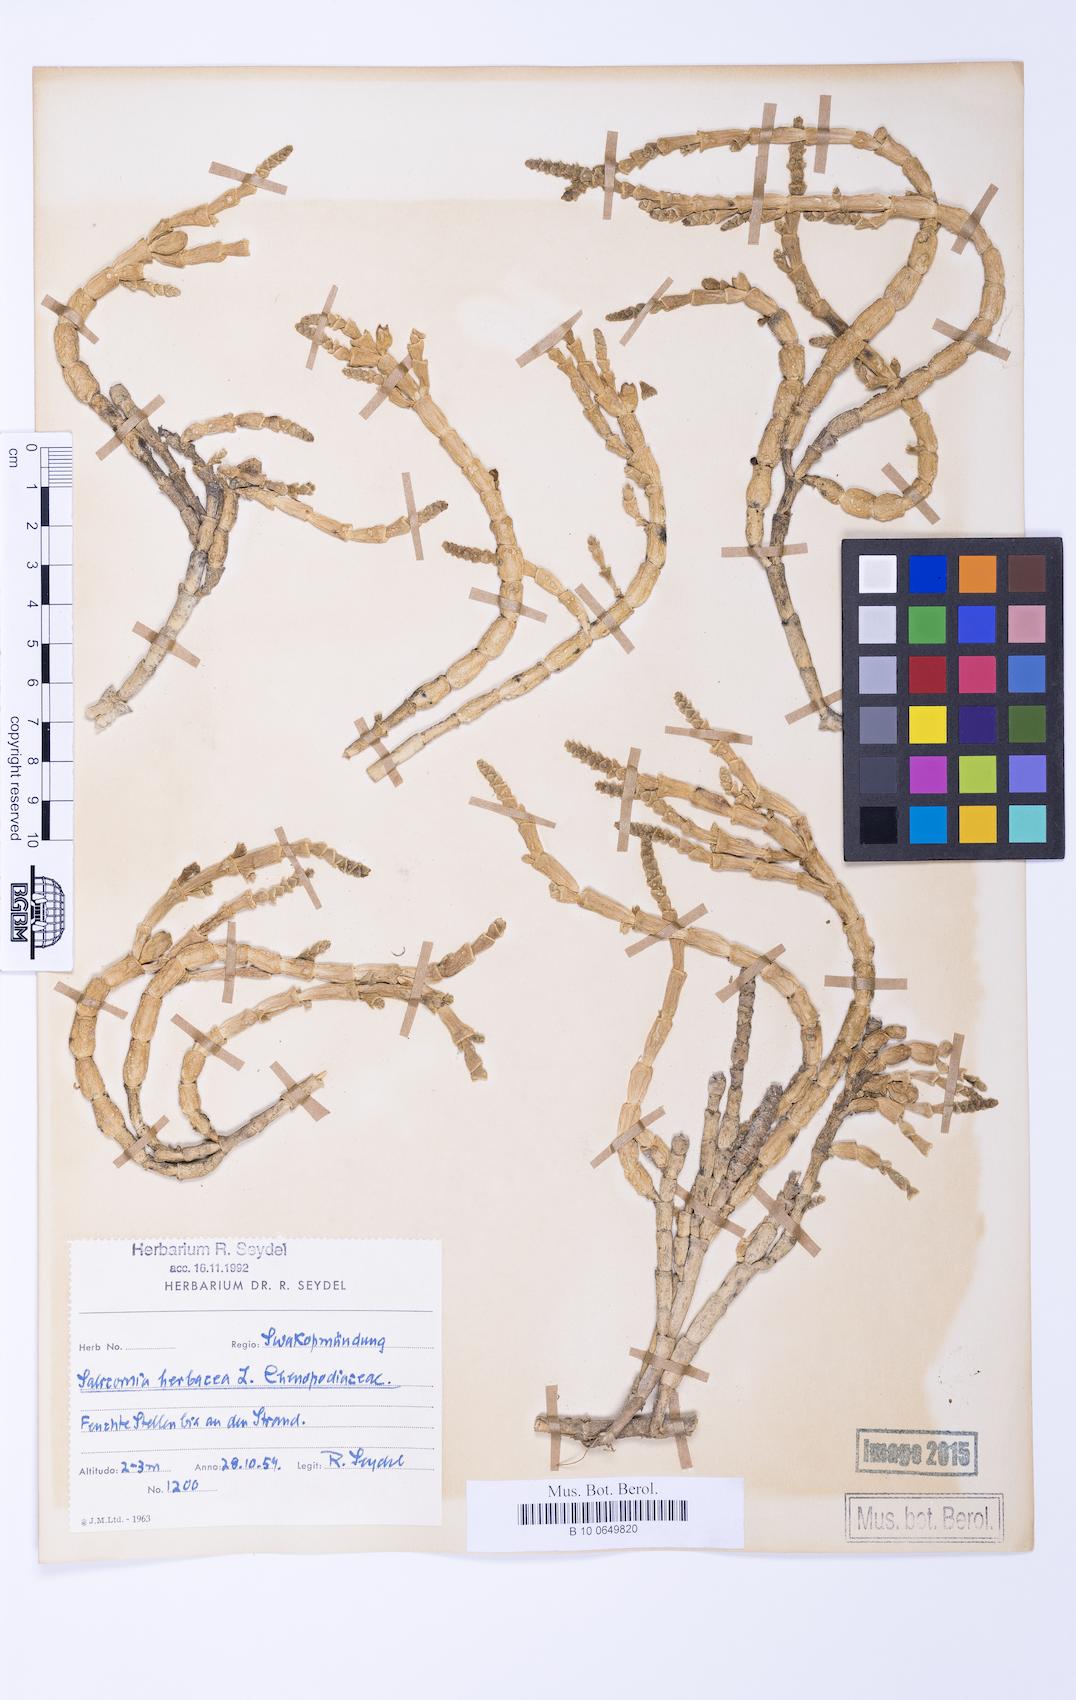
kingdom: Plantae
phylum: Tracheophyta
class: Magnoliopsida
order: Caryophyllales
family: Amaranthaceae
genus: Salicornia
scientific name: Salicornia natalensis
